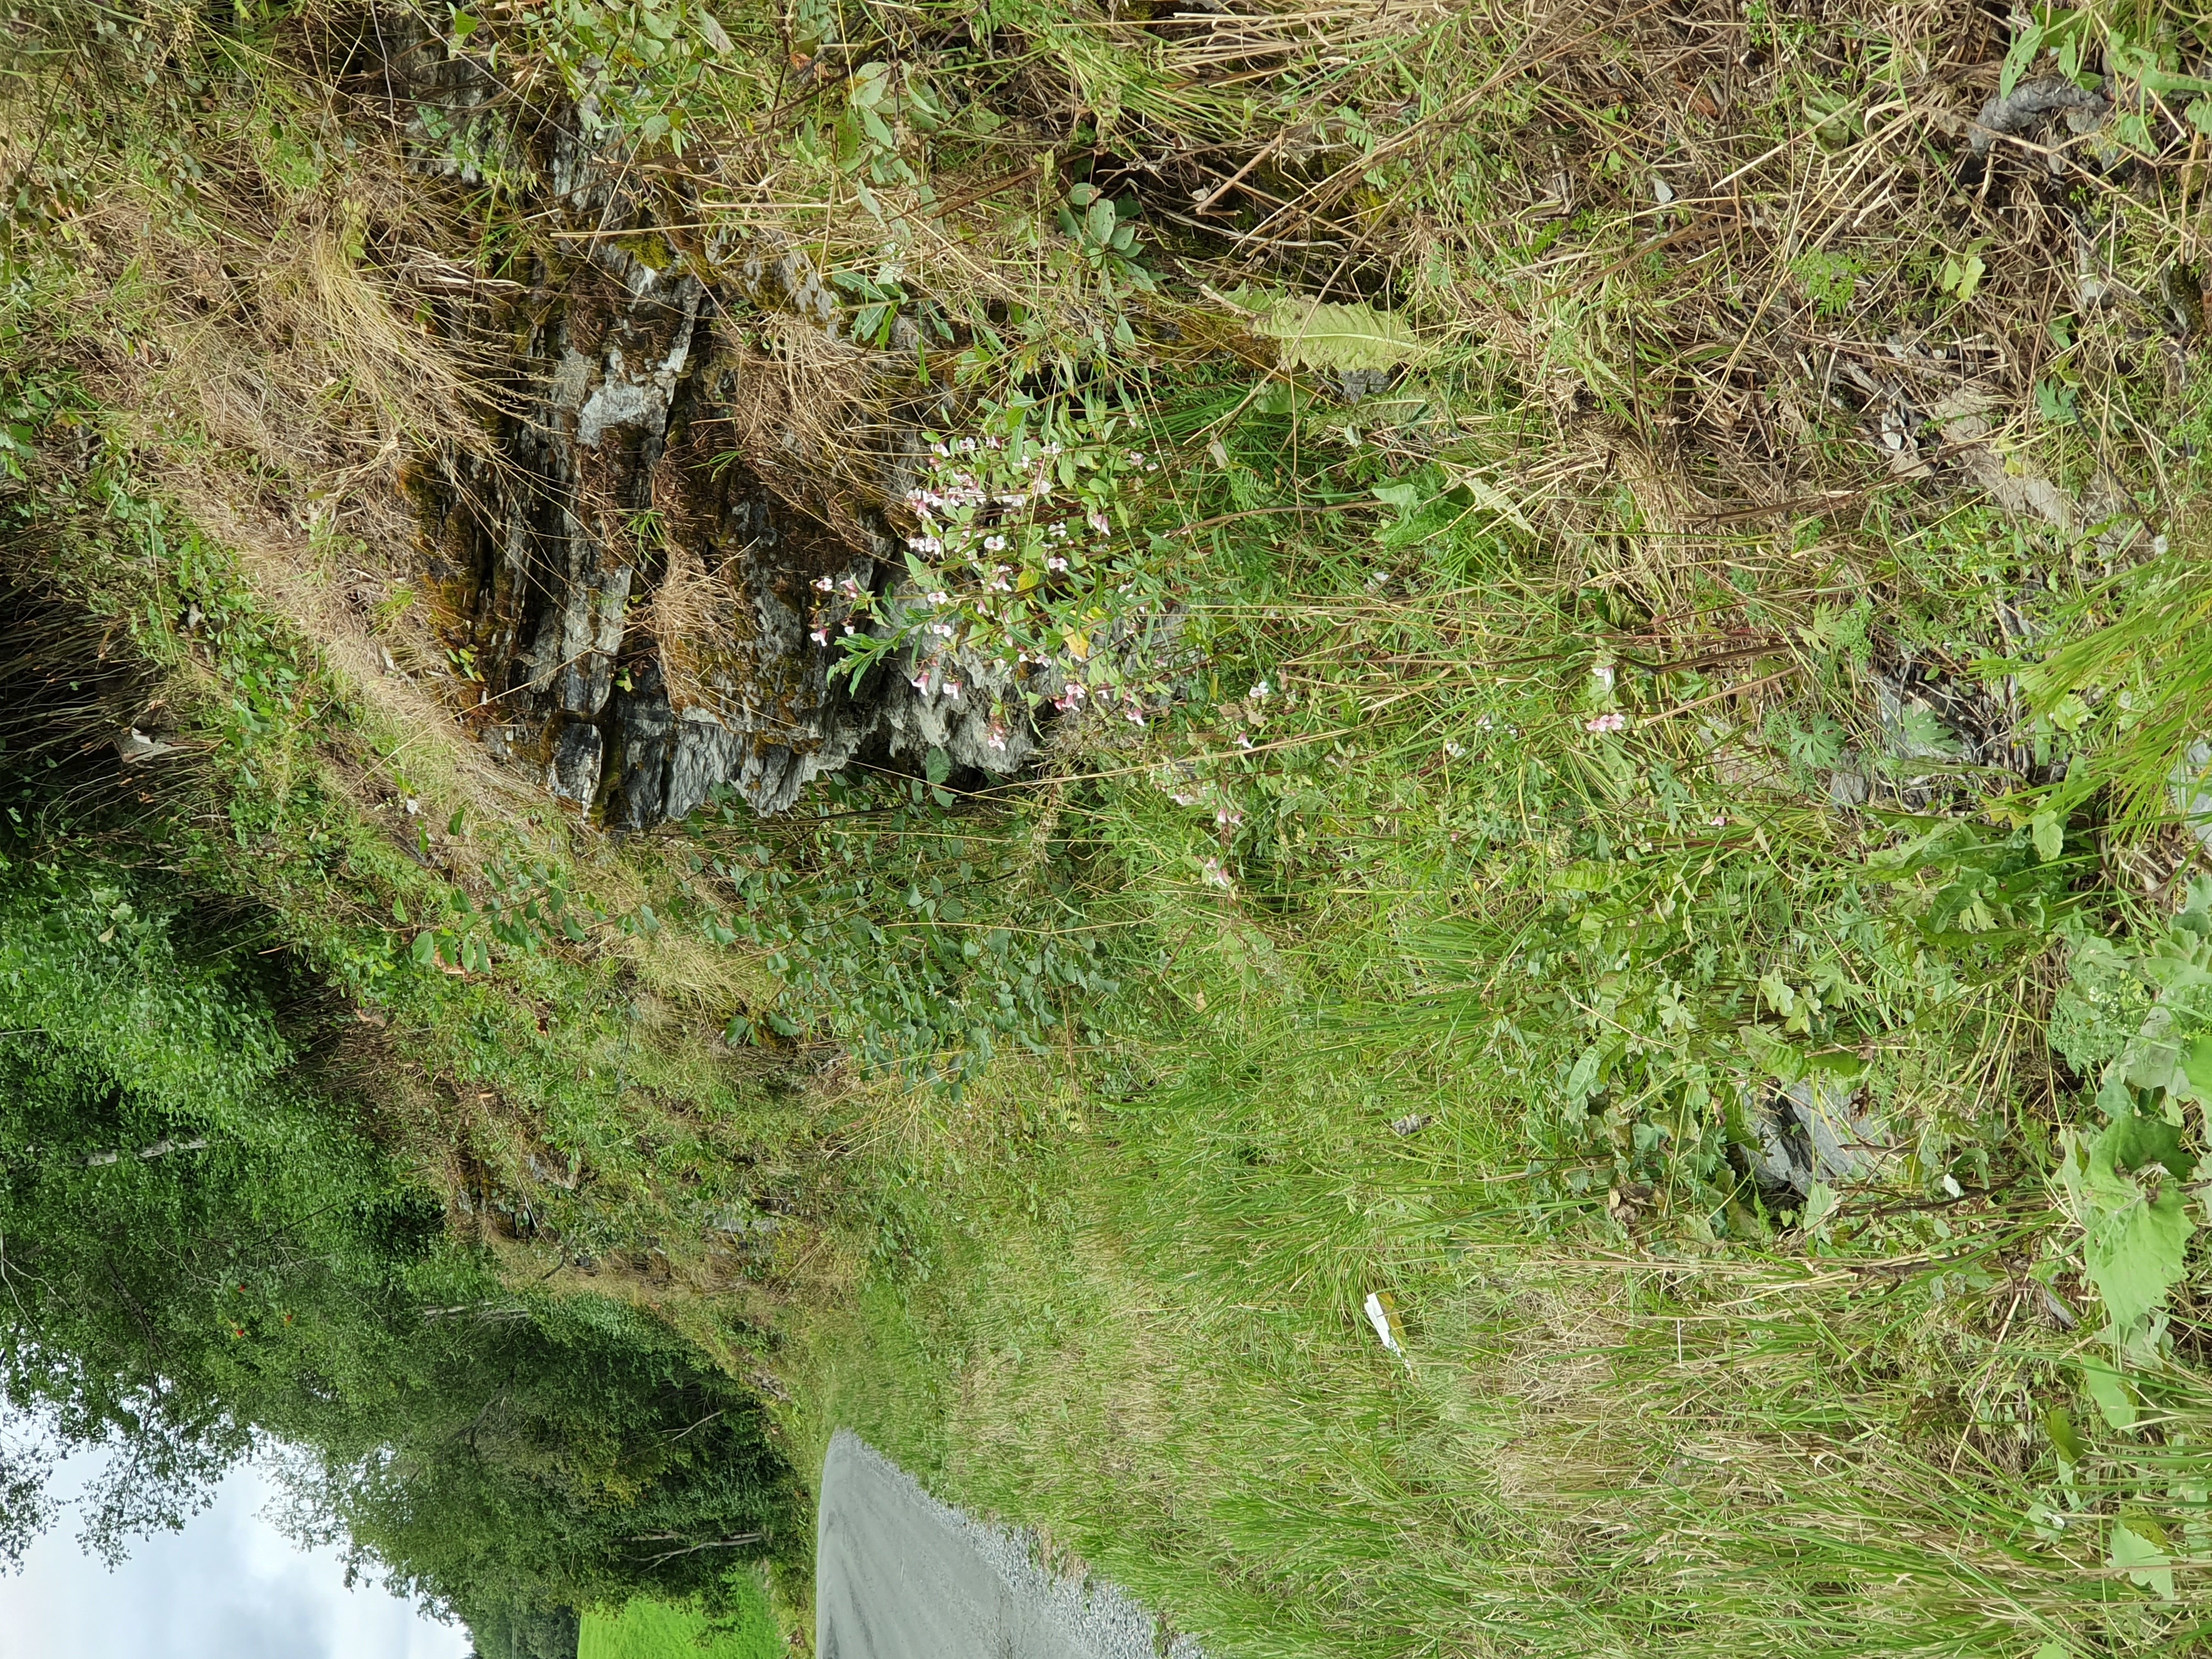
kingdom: Plantae
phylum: Tracheophyta
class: Magnoliopsida
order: Ericales
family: Balsaminaceae
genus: Impatiens
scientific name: Impatiens glandulifera
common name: Himalayan balsam
